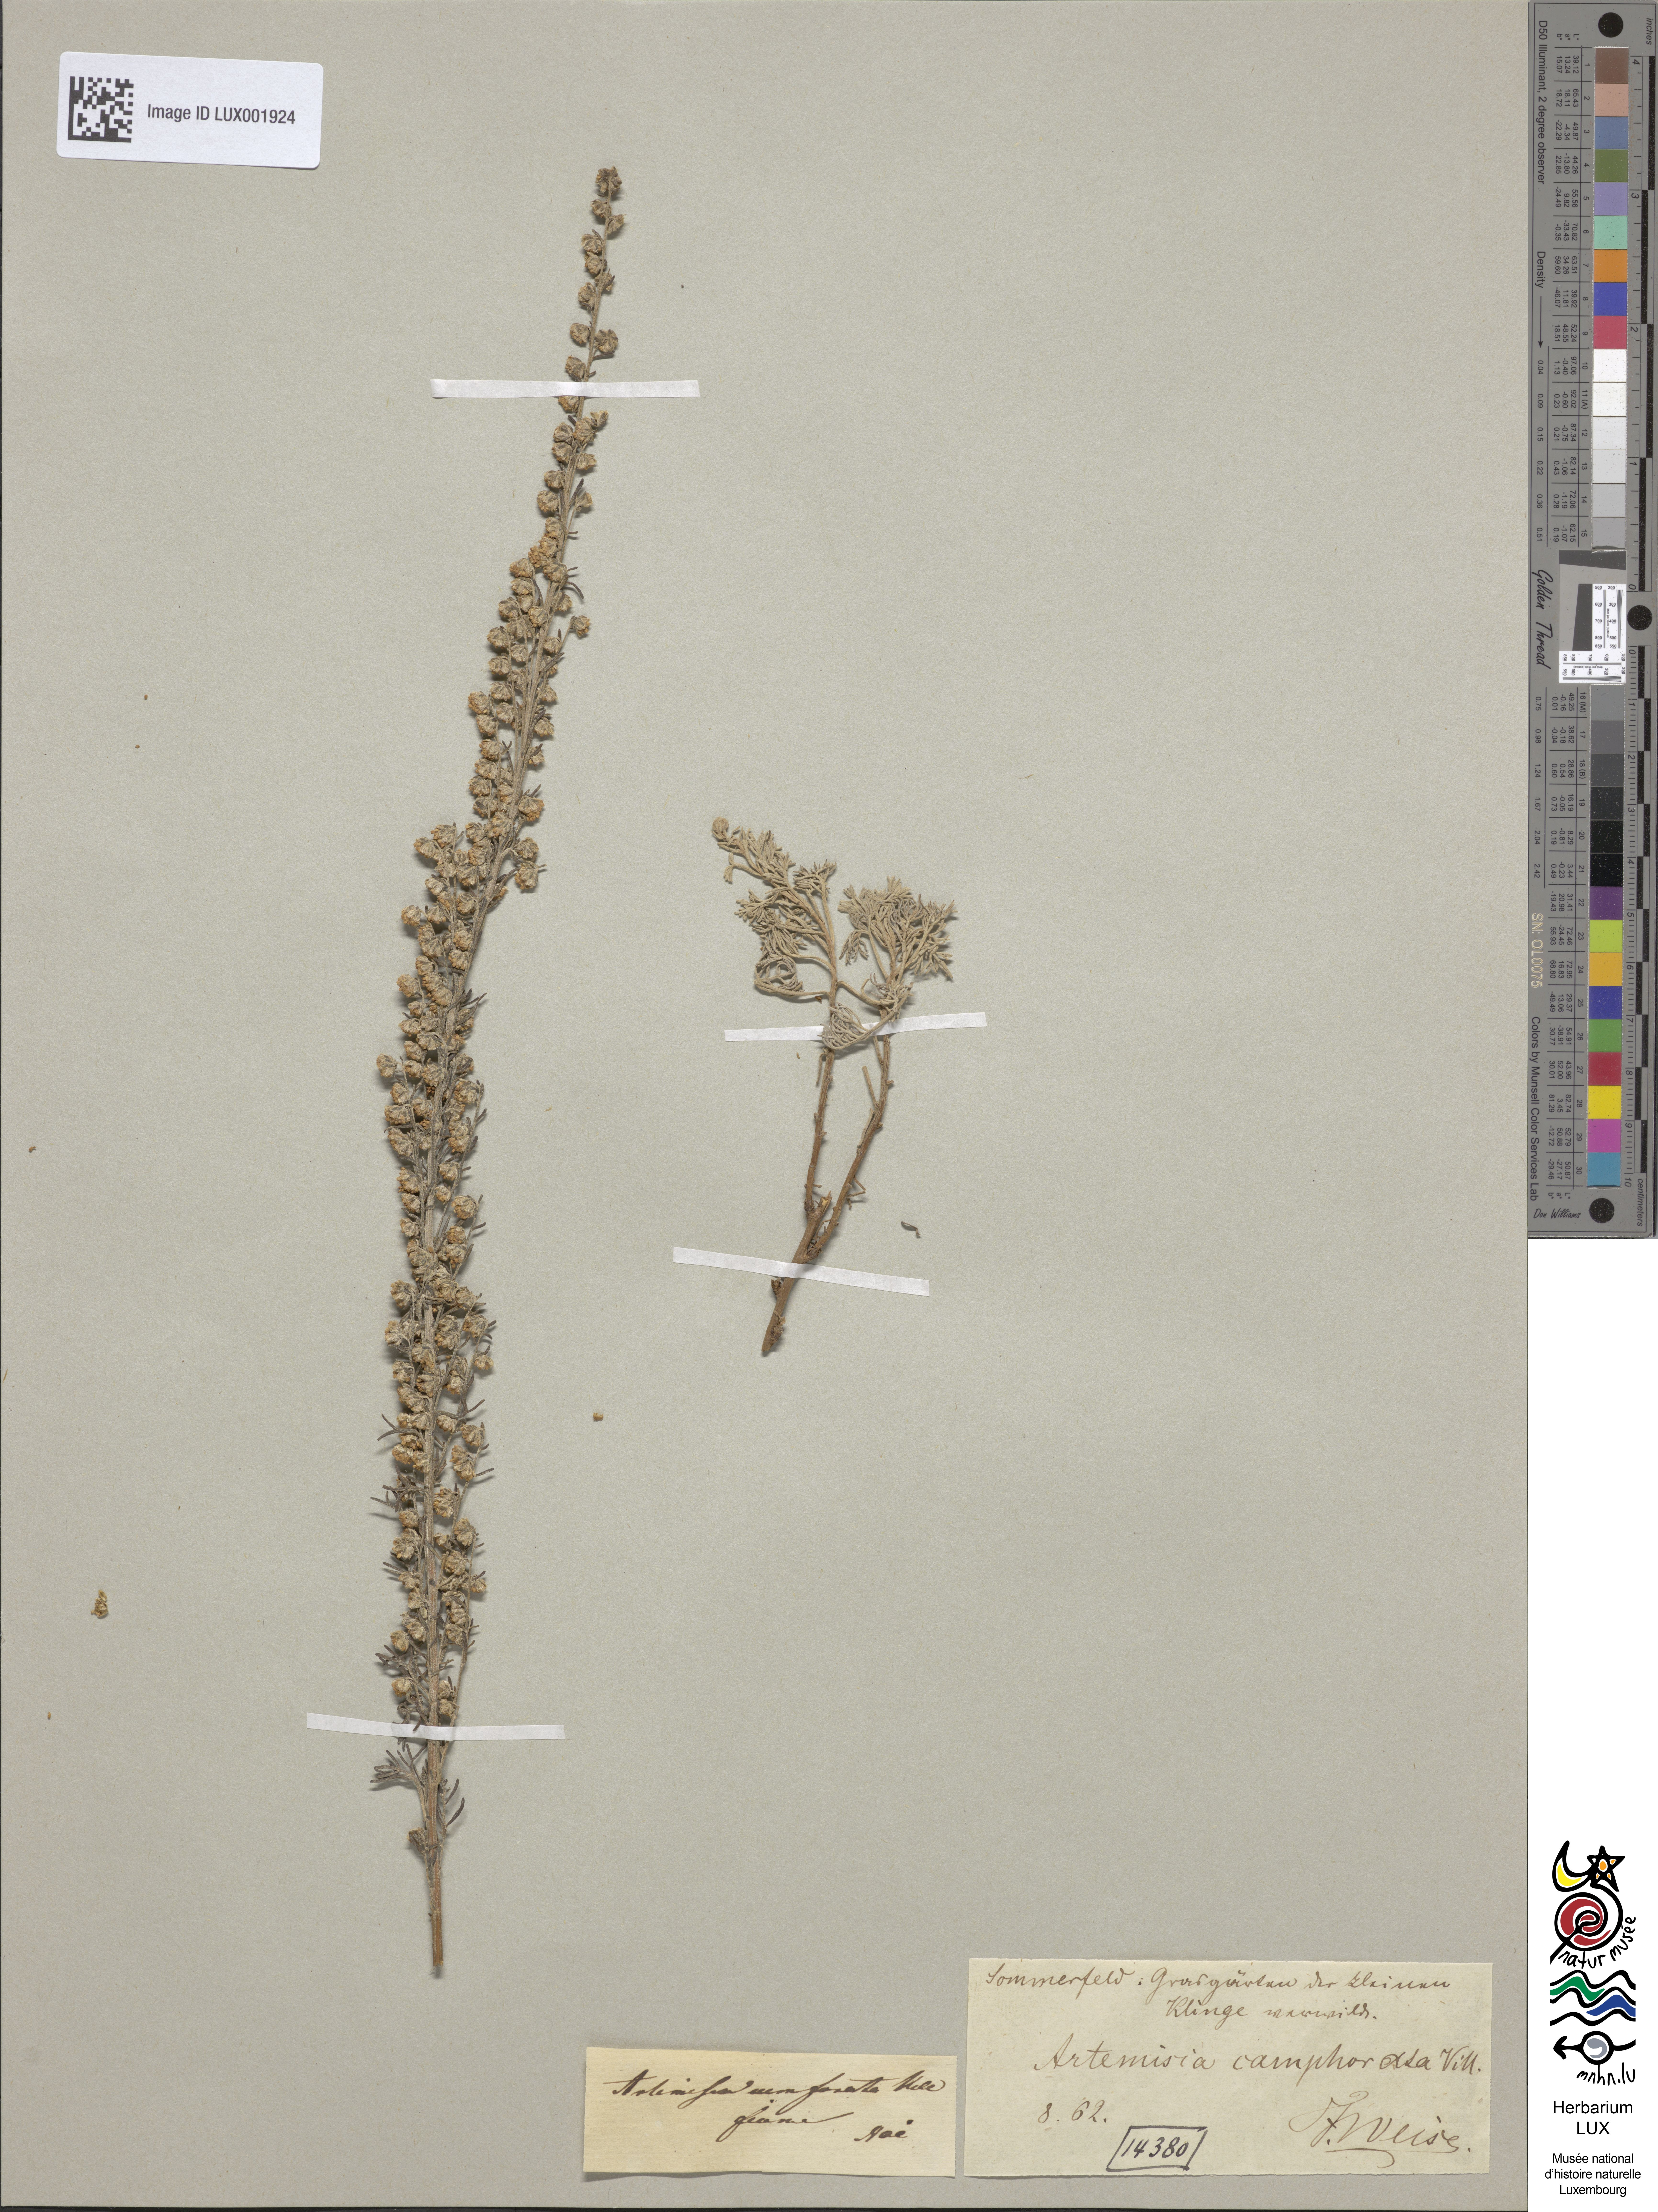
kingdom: Plantae
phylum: Tracheophyta
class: Magnoliopsida
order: Asterales
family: Asteraceae
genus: Artemisia
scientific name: Artemisia alba
